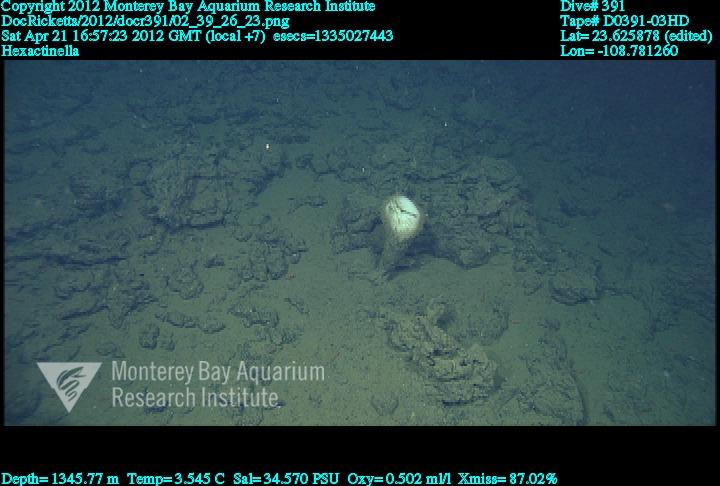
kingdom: Animalia
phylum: Porifera
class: Hexactinellida
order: Sceptrulophora
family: Tretodictyidae
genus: Hexactinella
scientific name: Hexactinella
